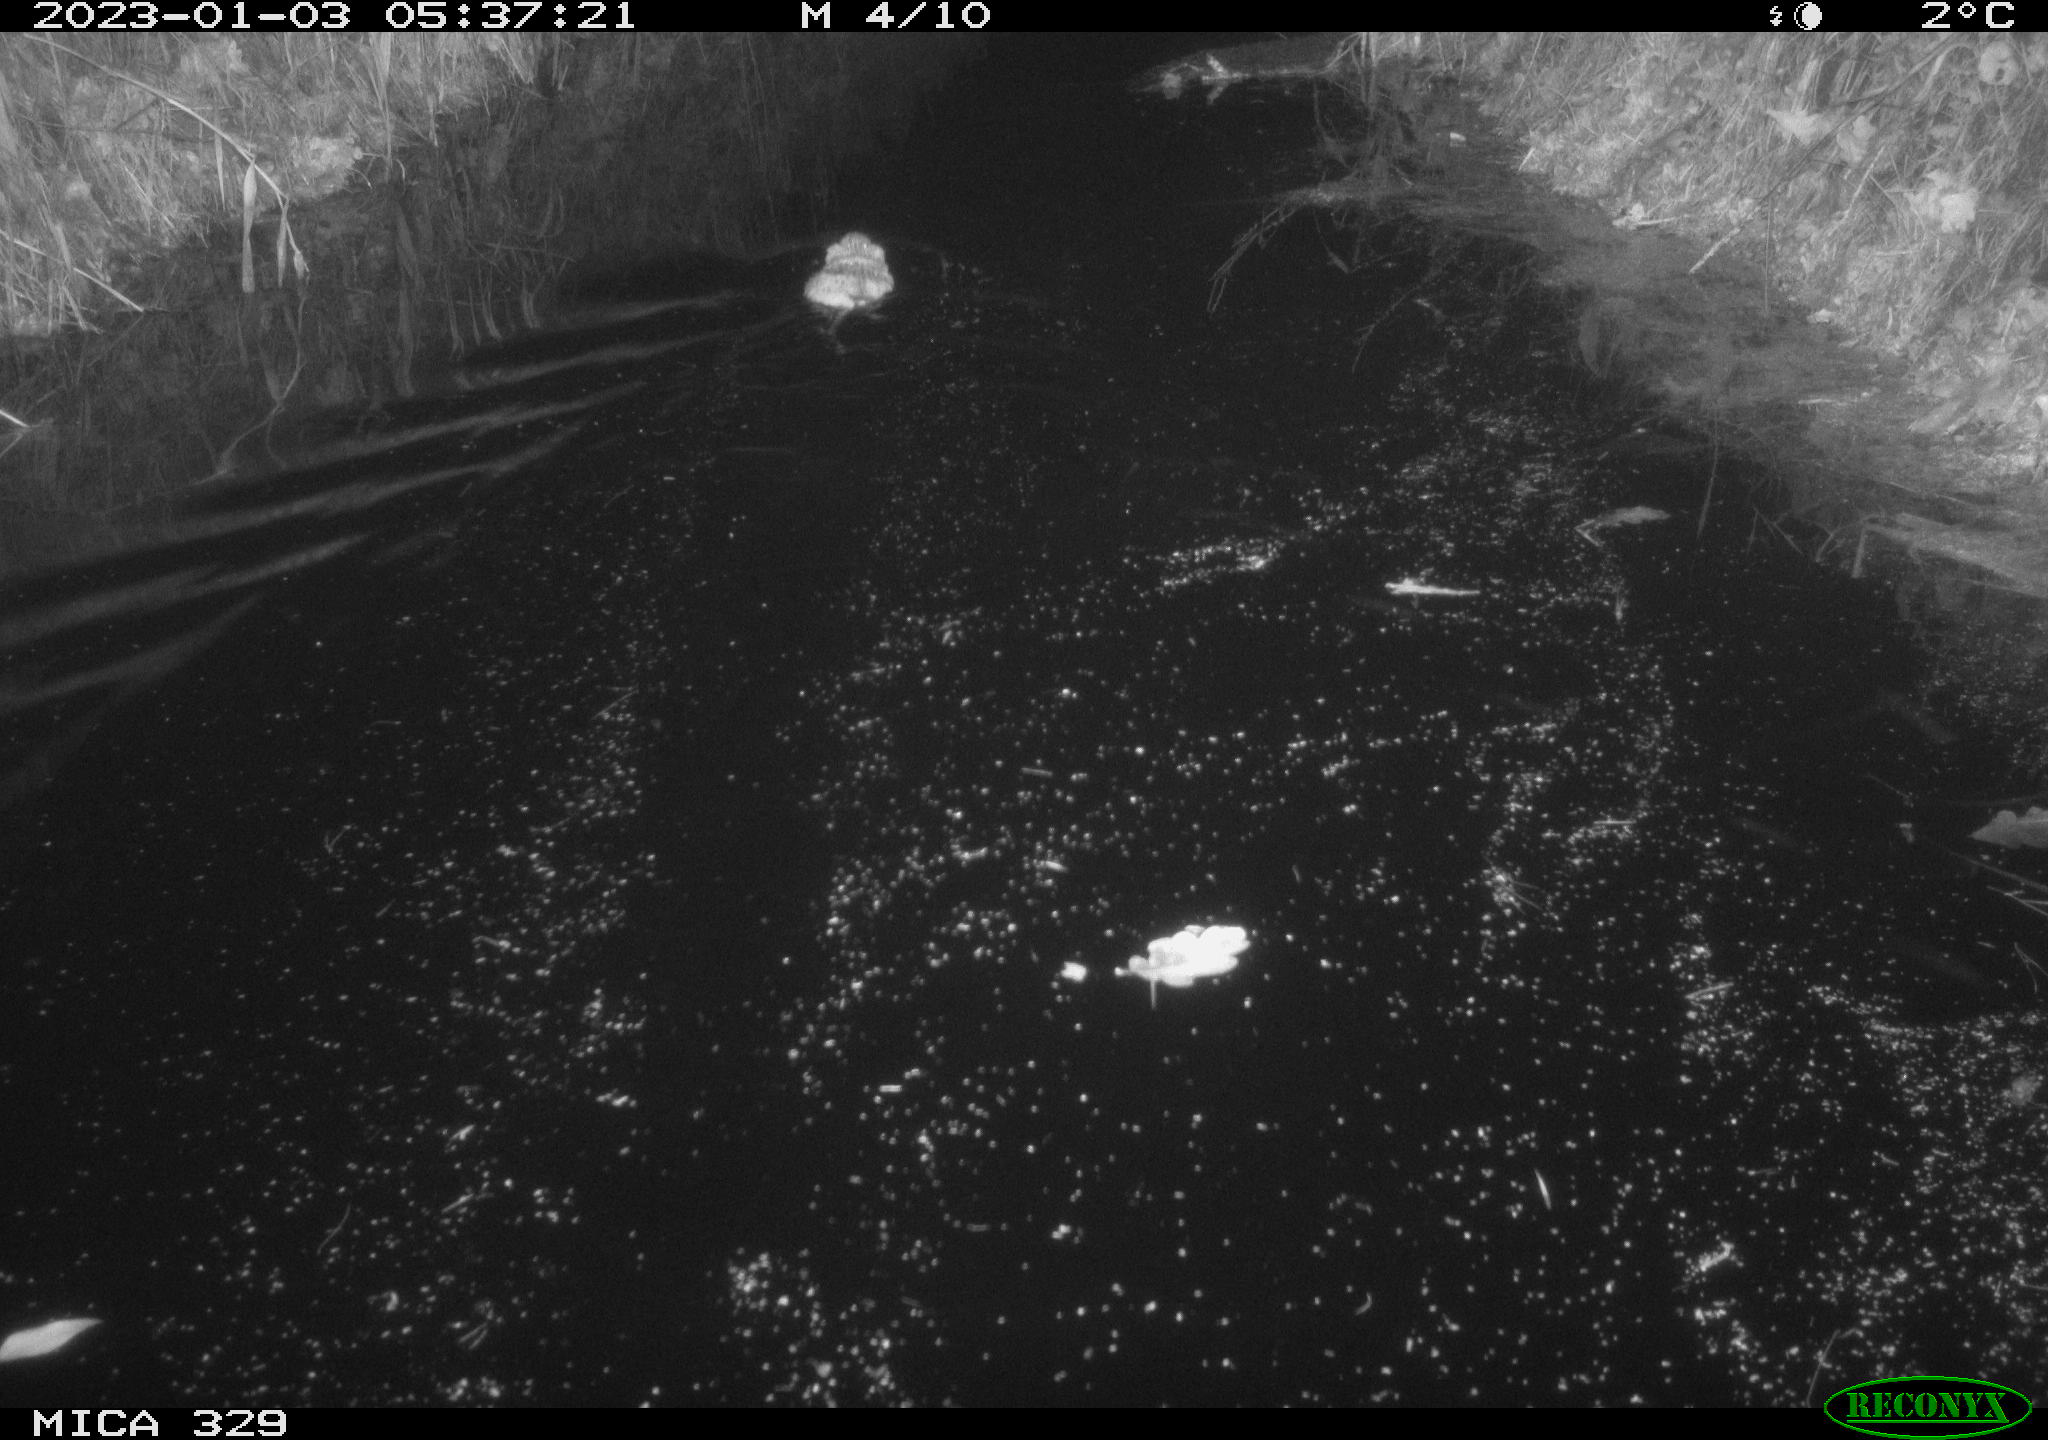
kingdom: Animalia
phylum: Chordata
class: Mammalia
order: Rodentia
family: Cricetidae
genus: Ondatra
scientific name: Ondatra zibethicus
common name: Muskrat
